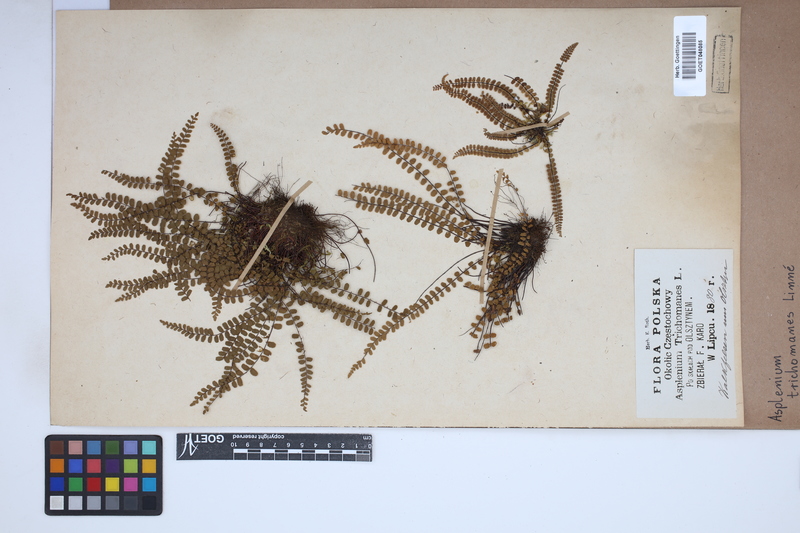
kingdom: Plantae
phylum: Tracheophyta
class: Polypodiopsida
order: Polypodiales
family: Aspleniaceae
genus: Asplenium
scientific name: Asplenium trichomanes
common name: Maidenhair spleenwort
